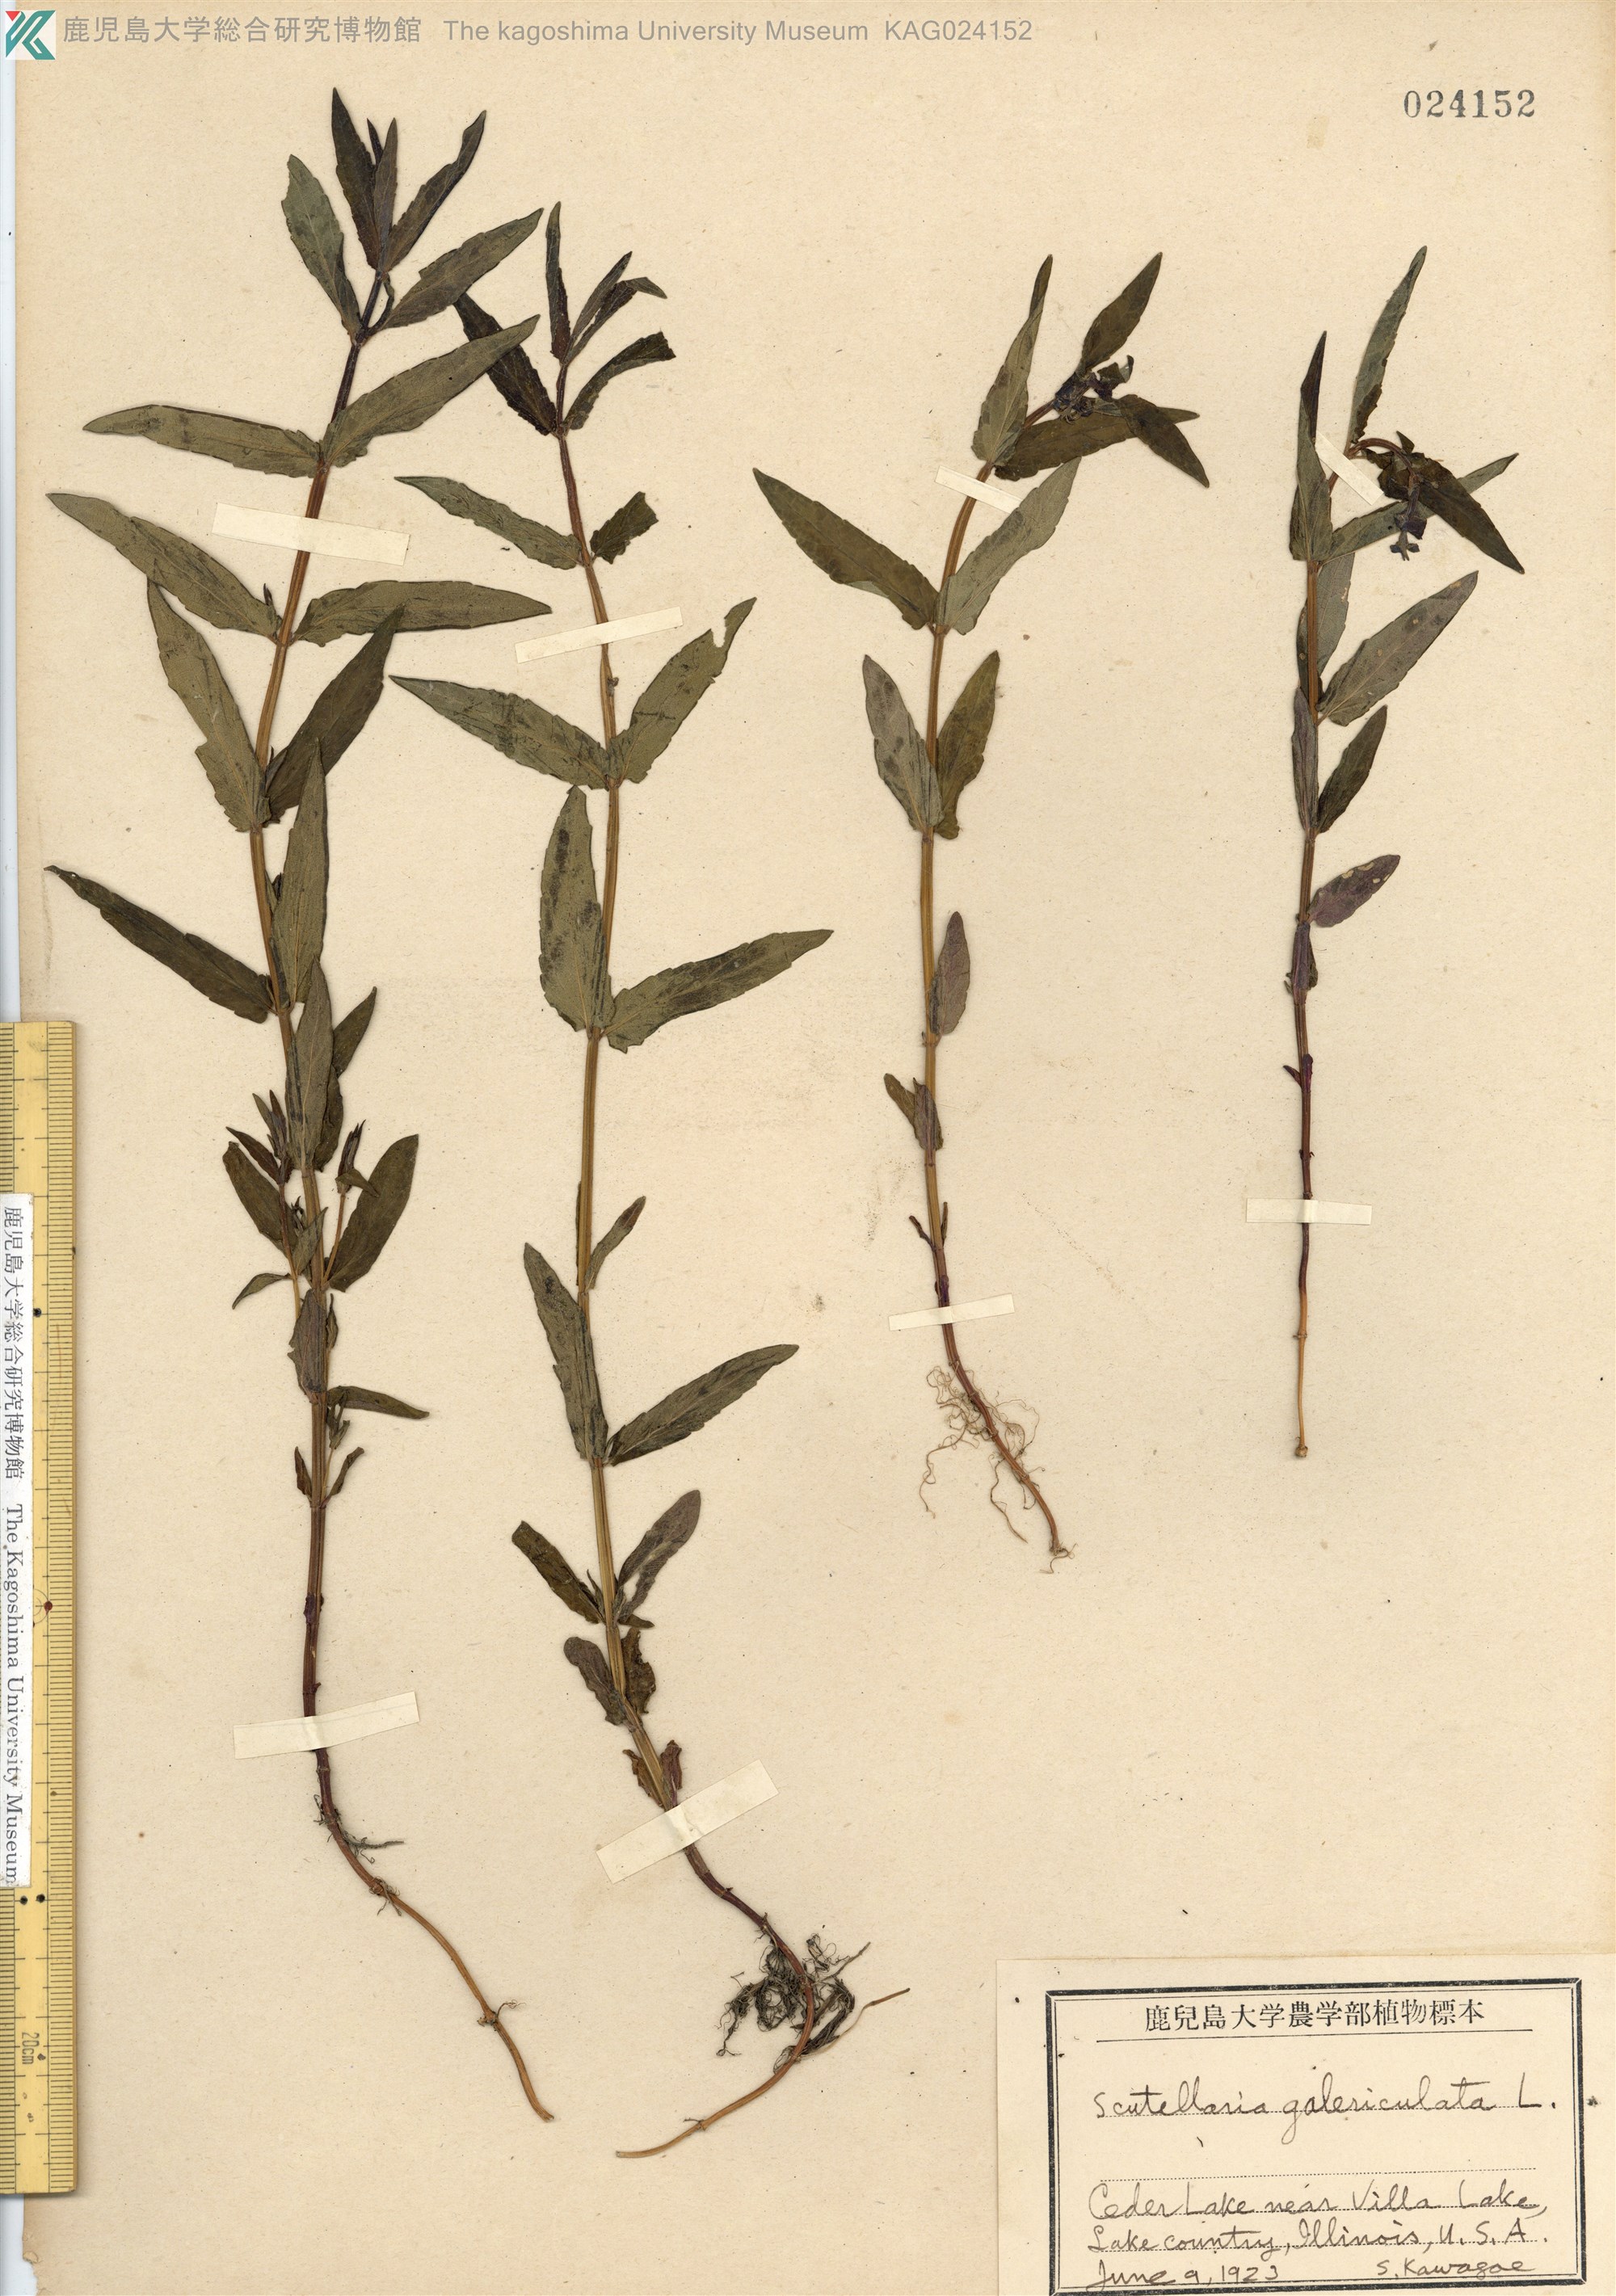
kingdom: Plantae
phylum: Tracheophyta
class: Magnoliopsida
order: Lamiales
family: Lamiaceae
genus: Scutellaria
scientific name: Scutellaria galericulata
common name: Skullcap
